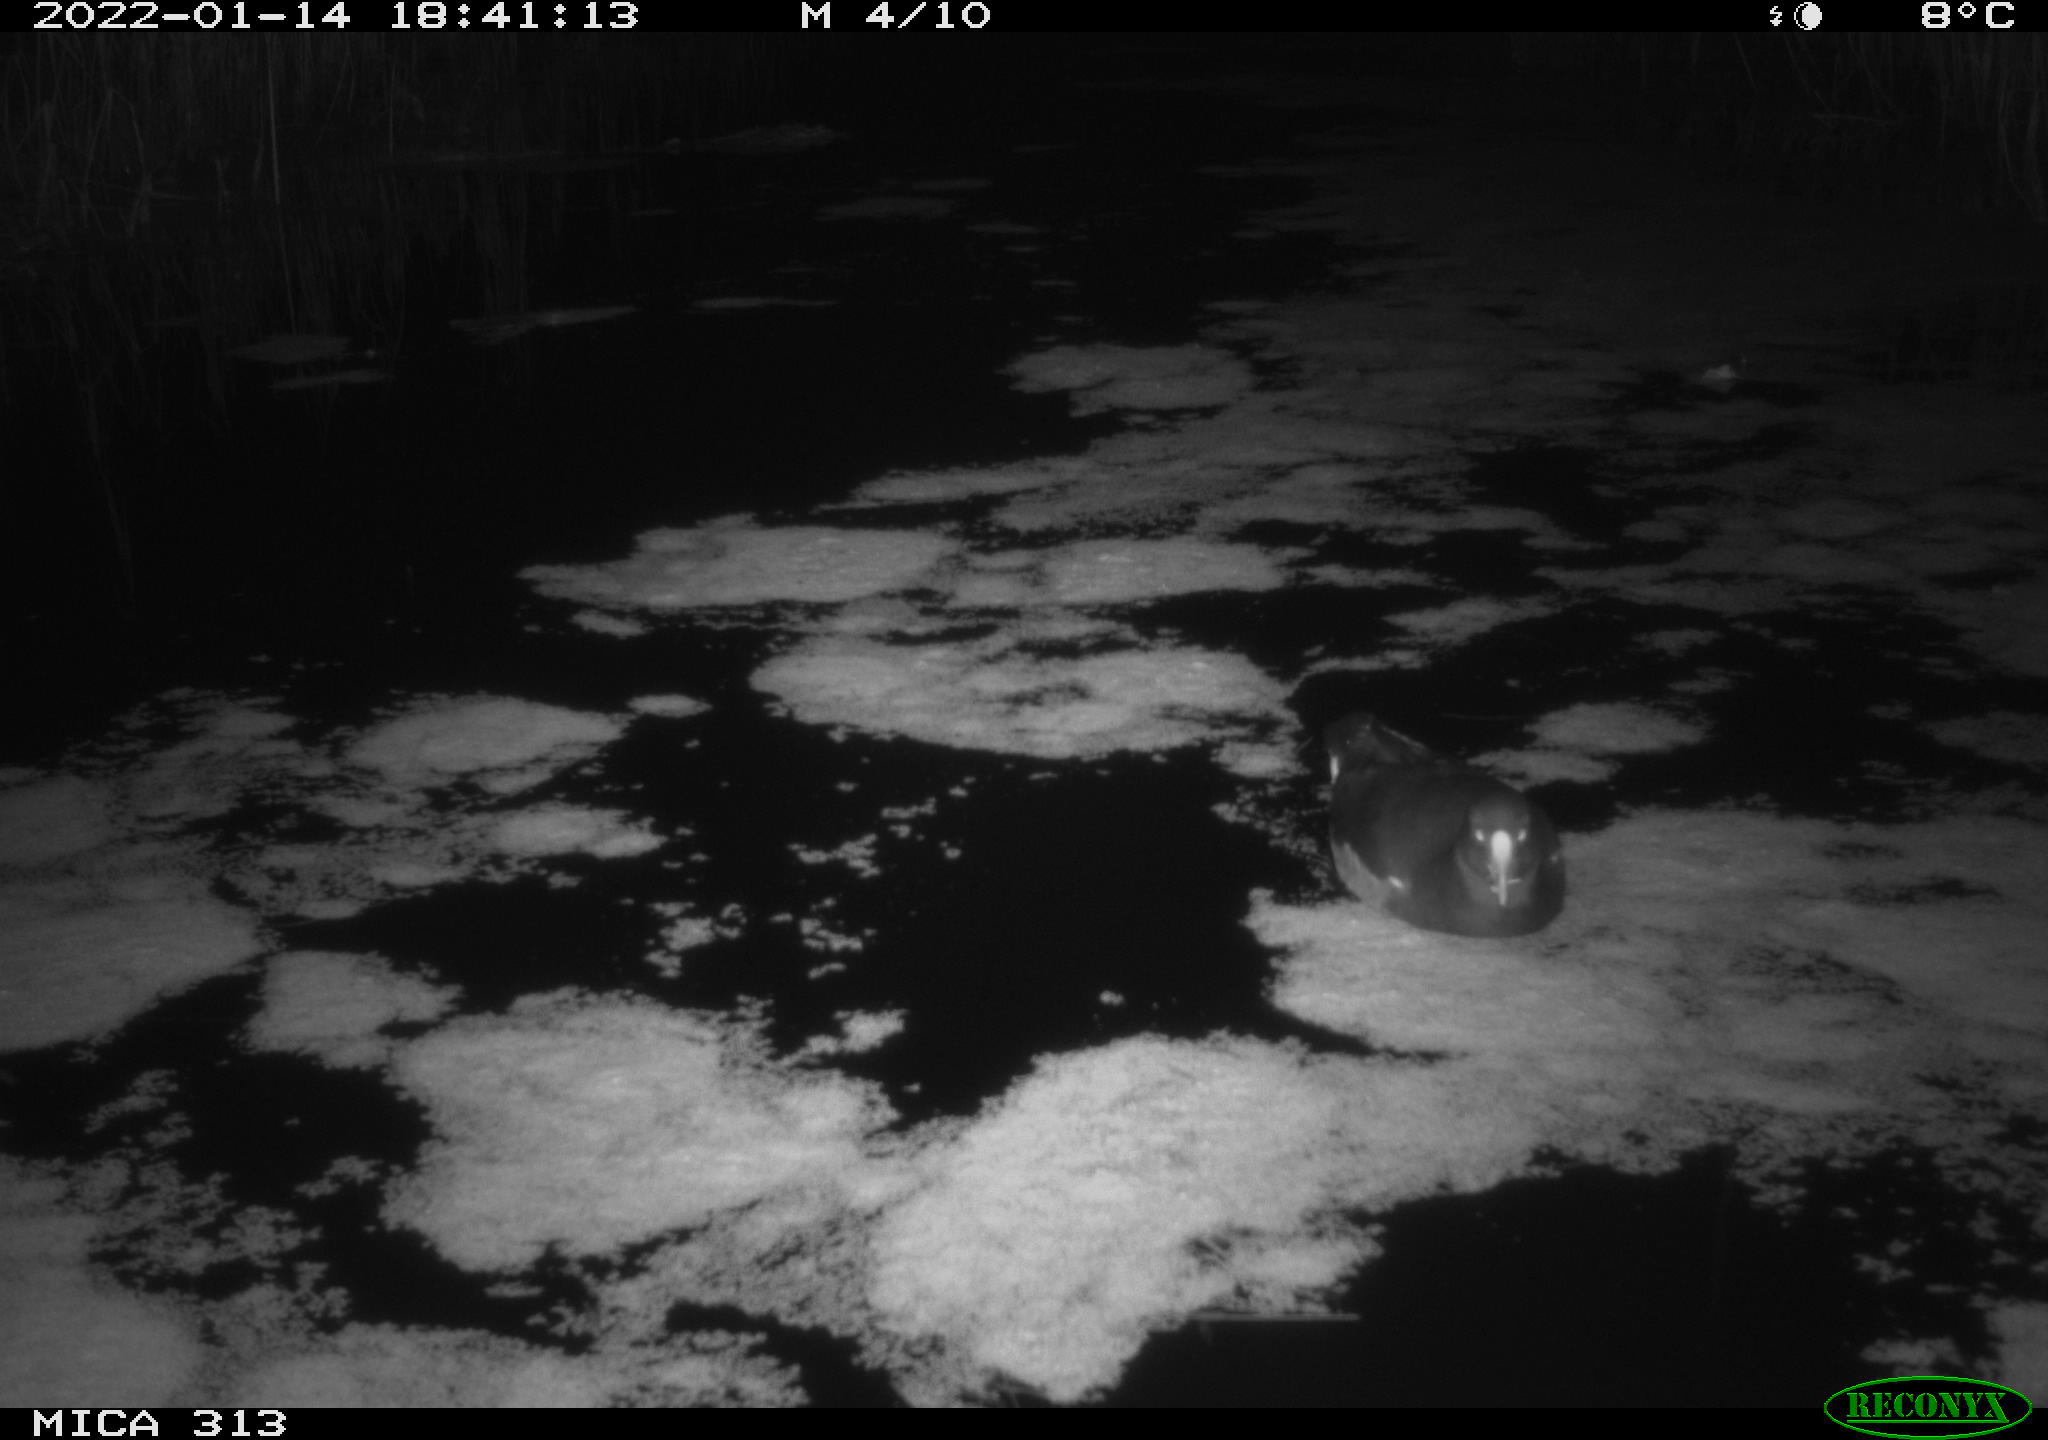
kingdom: Animalia
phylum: Chordata
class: Aves
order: Gruiformes
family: Rallidae
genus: Fulica
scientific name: Fulica atra
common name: Eurasian coot
